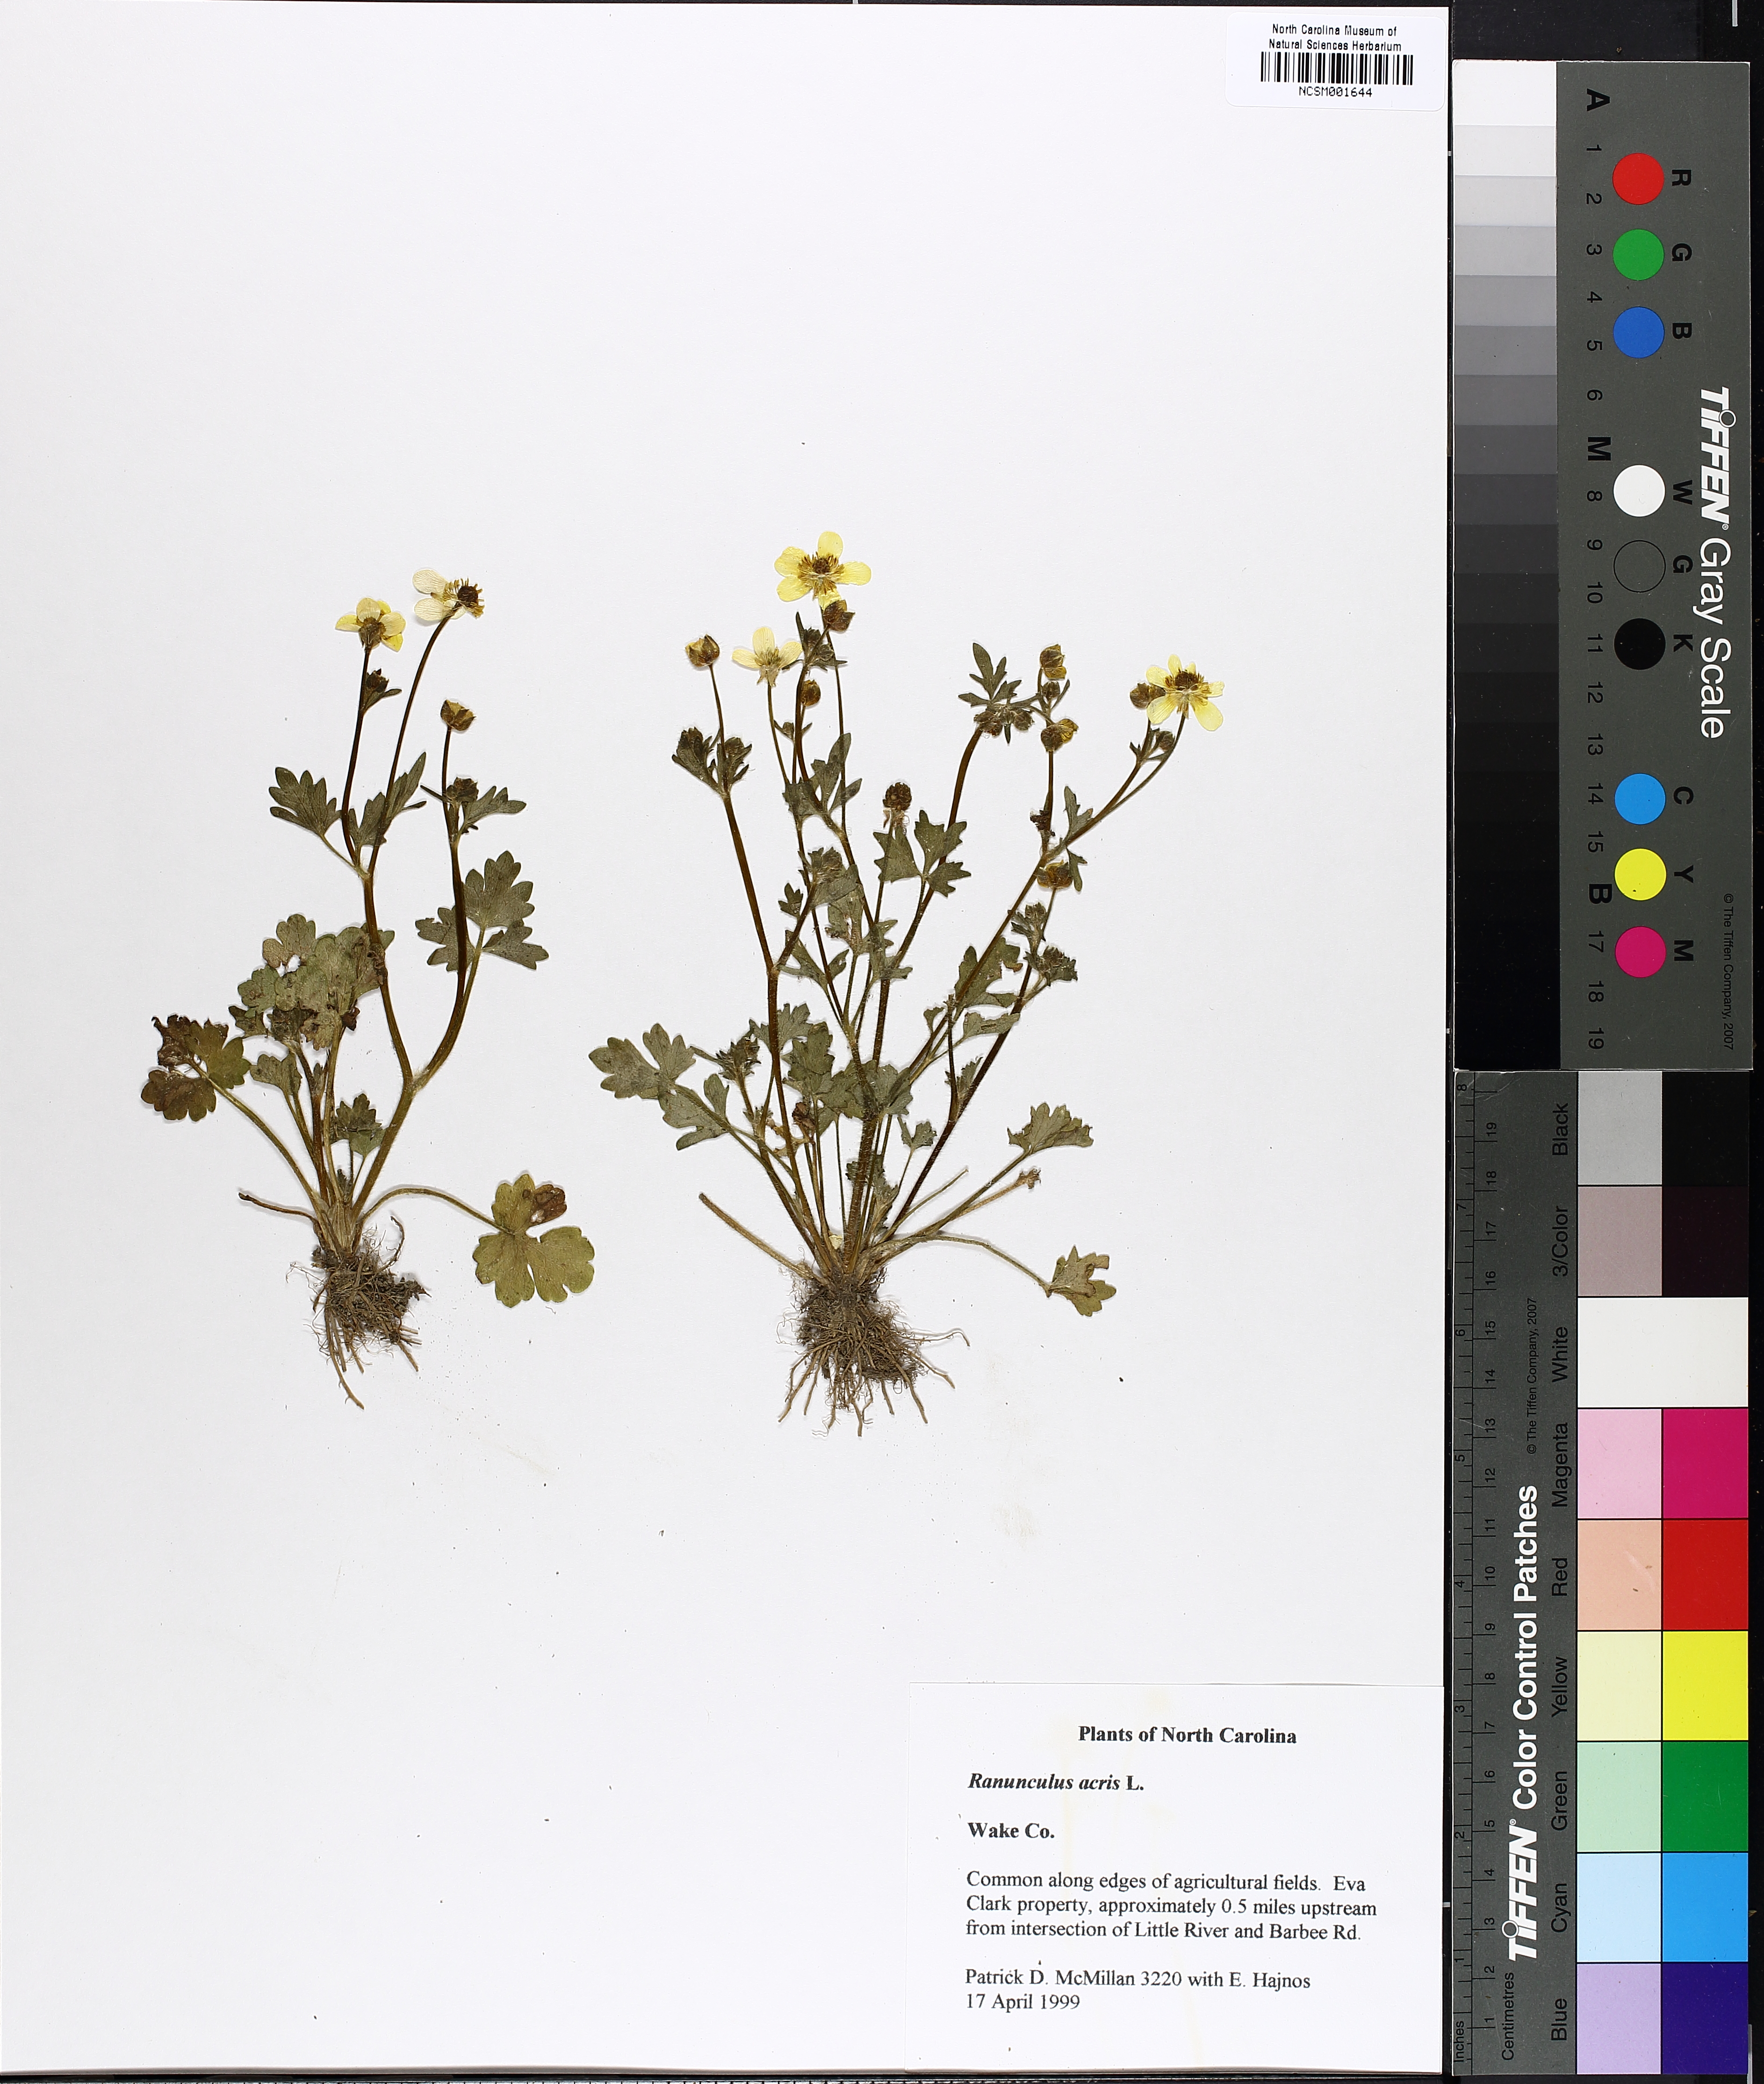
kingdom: Plantae
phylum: Tracheophyta
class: Magnoliopsida
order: Ranunculales
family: Ranunculaceae
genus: Ranunculus
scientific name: Ranunculus acris
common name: Meadow buttercup
